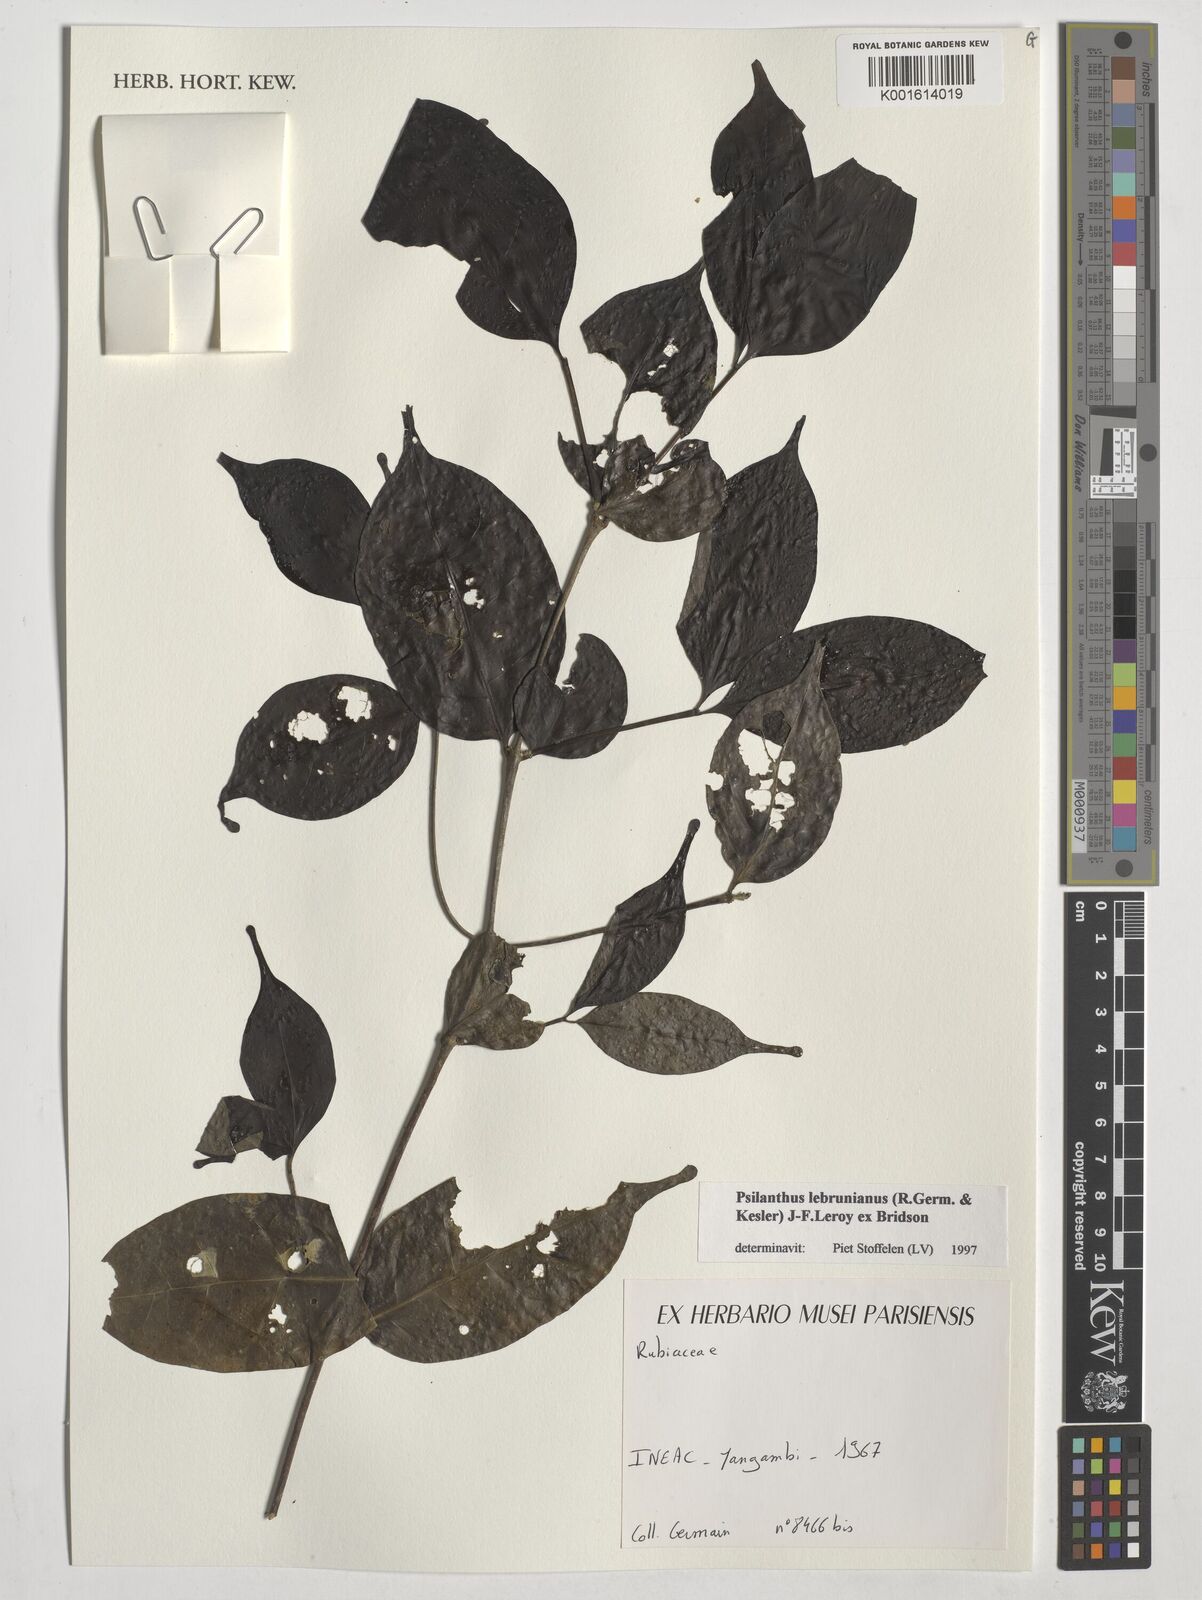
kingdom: Plantae
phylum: Tracheophyta
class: Magnoliopsida
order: Gentianales
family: Rubiaceae
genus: Coffea
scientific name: Coffea lebruniana
